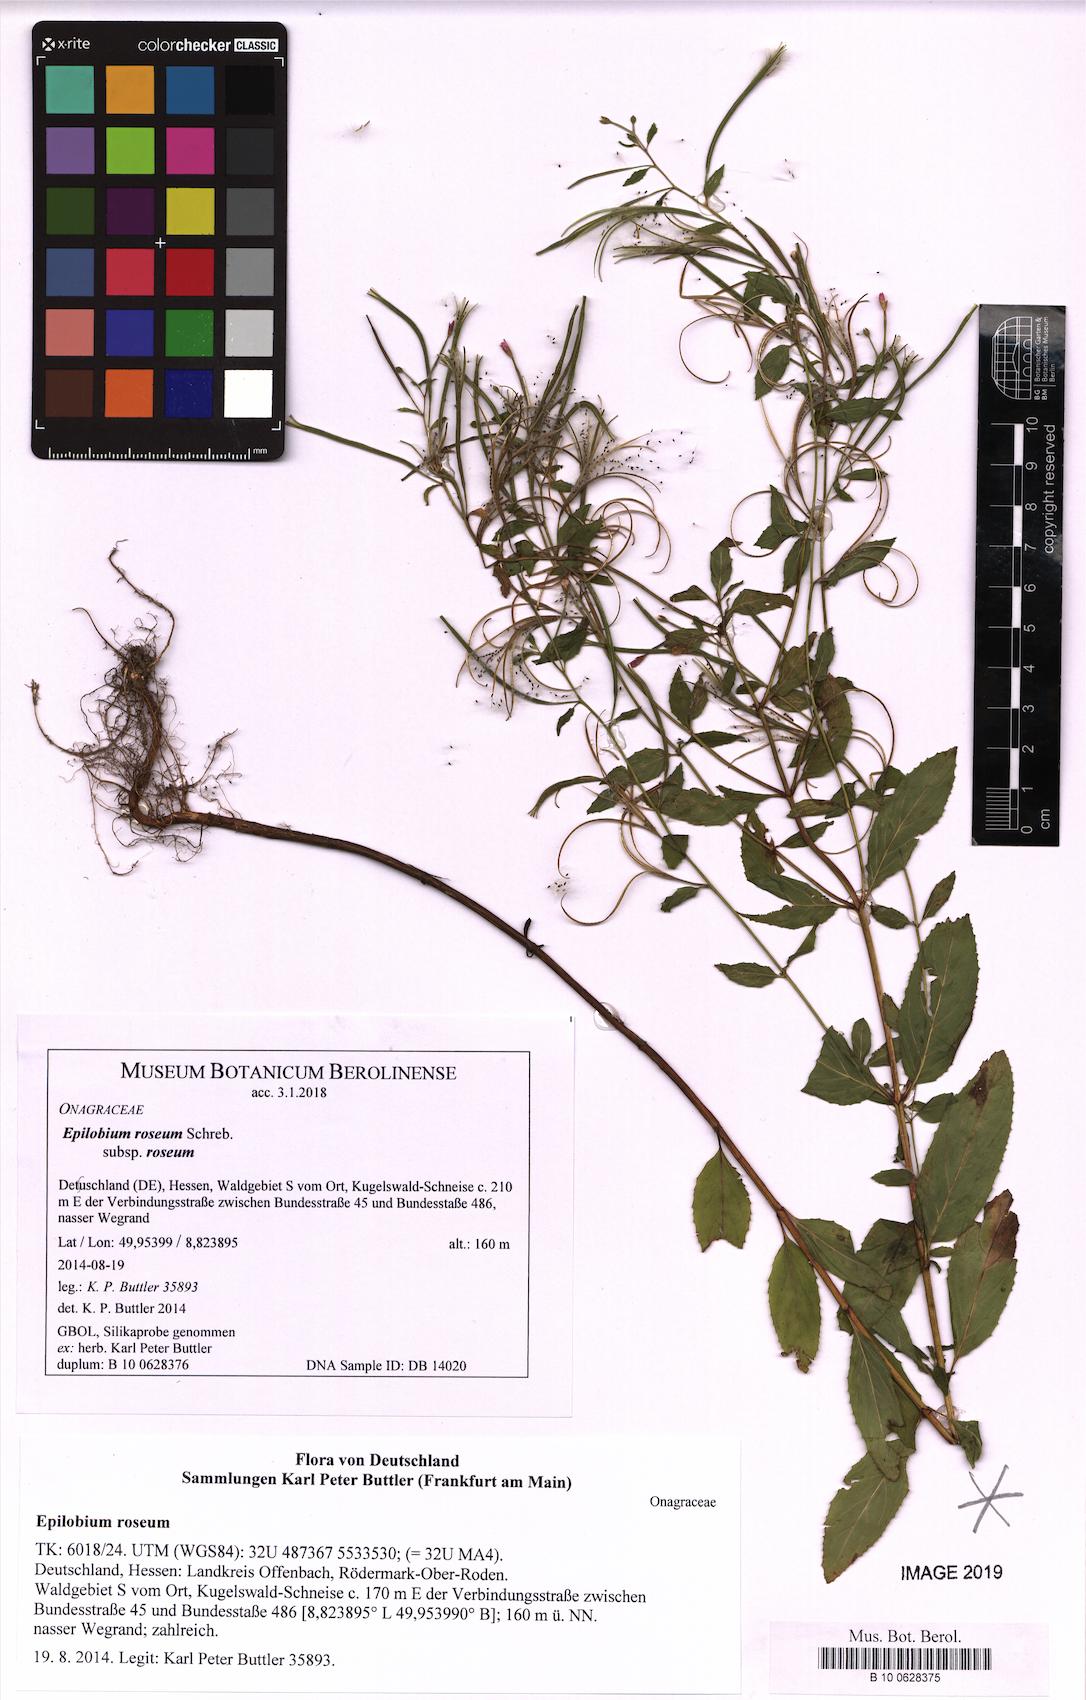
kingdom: Plantae
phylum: Tracheophyta
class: Magnoliopsida
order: Myrtales
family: Onagraceae
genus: Epilobium
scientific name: Epilobium roseum
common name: Pale willowherb
